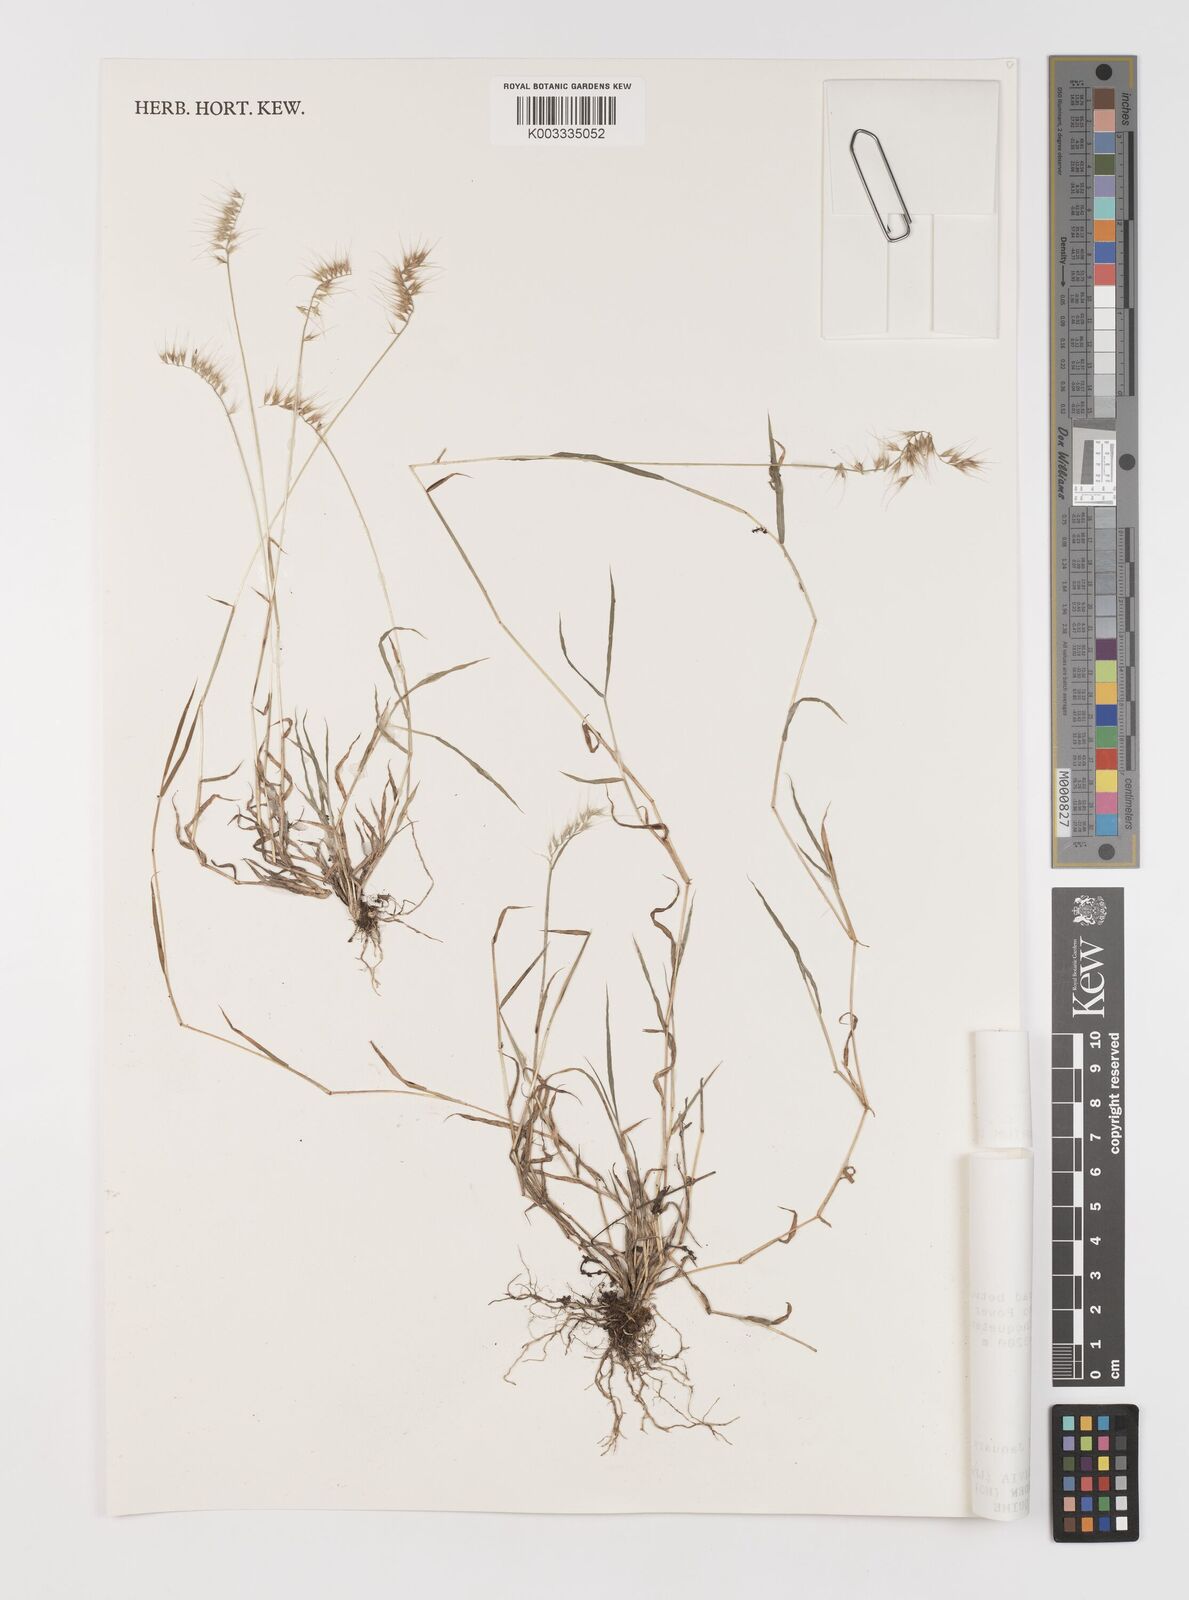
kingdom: Plantae
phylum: Tracheophyta
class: Liliopsida
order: Poales
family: Poaceae
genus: Muhlenbergia
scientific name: Muhlenbergia cenchroides
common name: Relaxgrass
